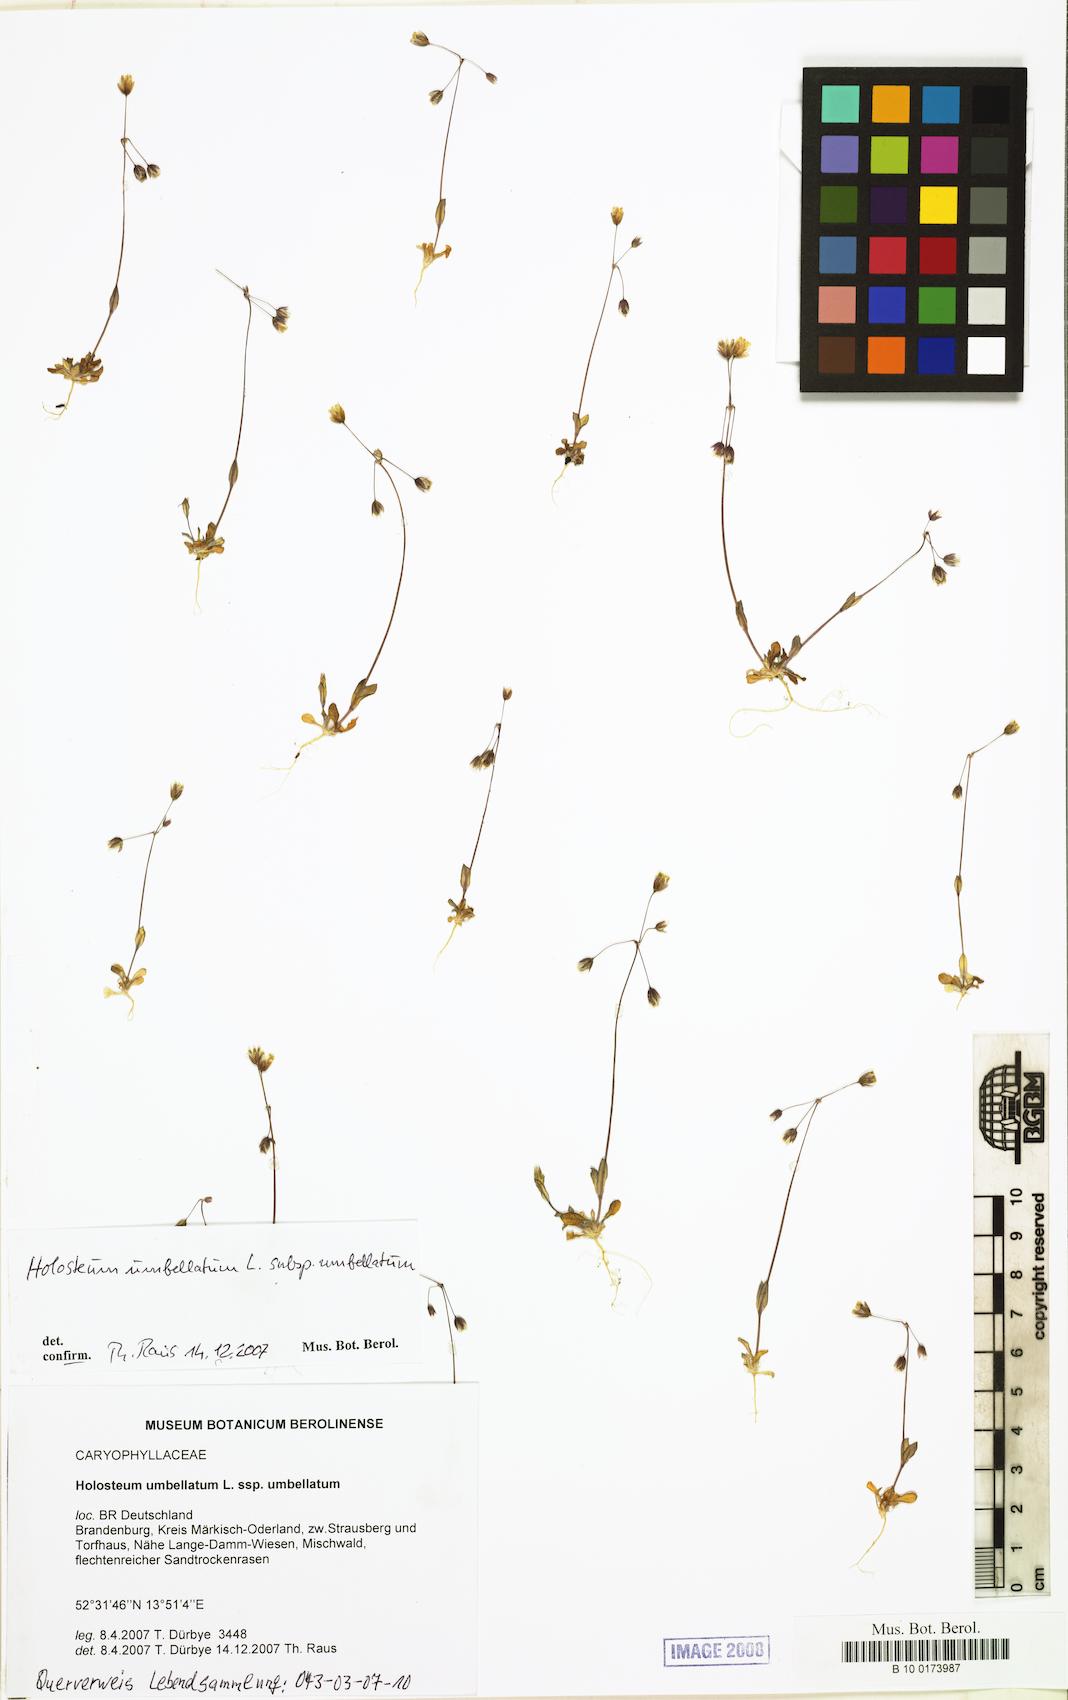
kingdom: Plantae
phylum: Tracheophyta
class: Magnoliopsida
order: Caryophyllales
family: Caryophyllaceae
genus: Holosteum
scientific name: Holosteum umbellatum
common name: Jagged chickweed
